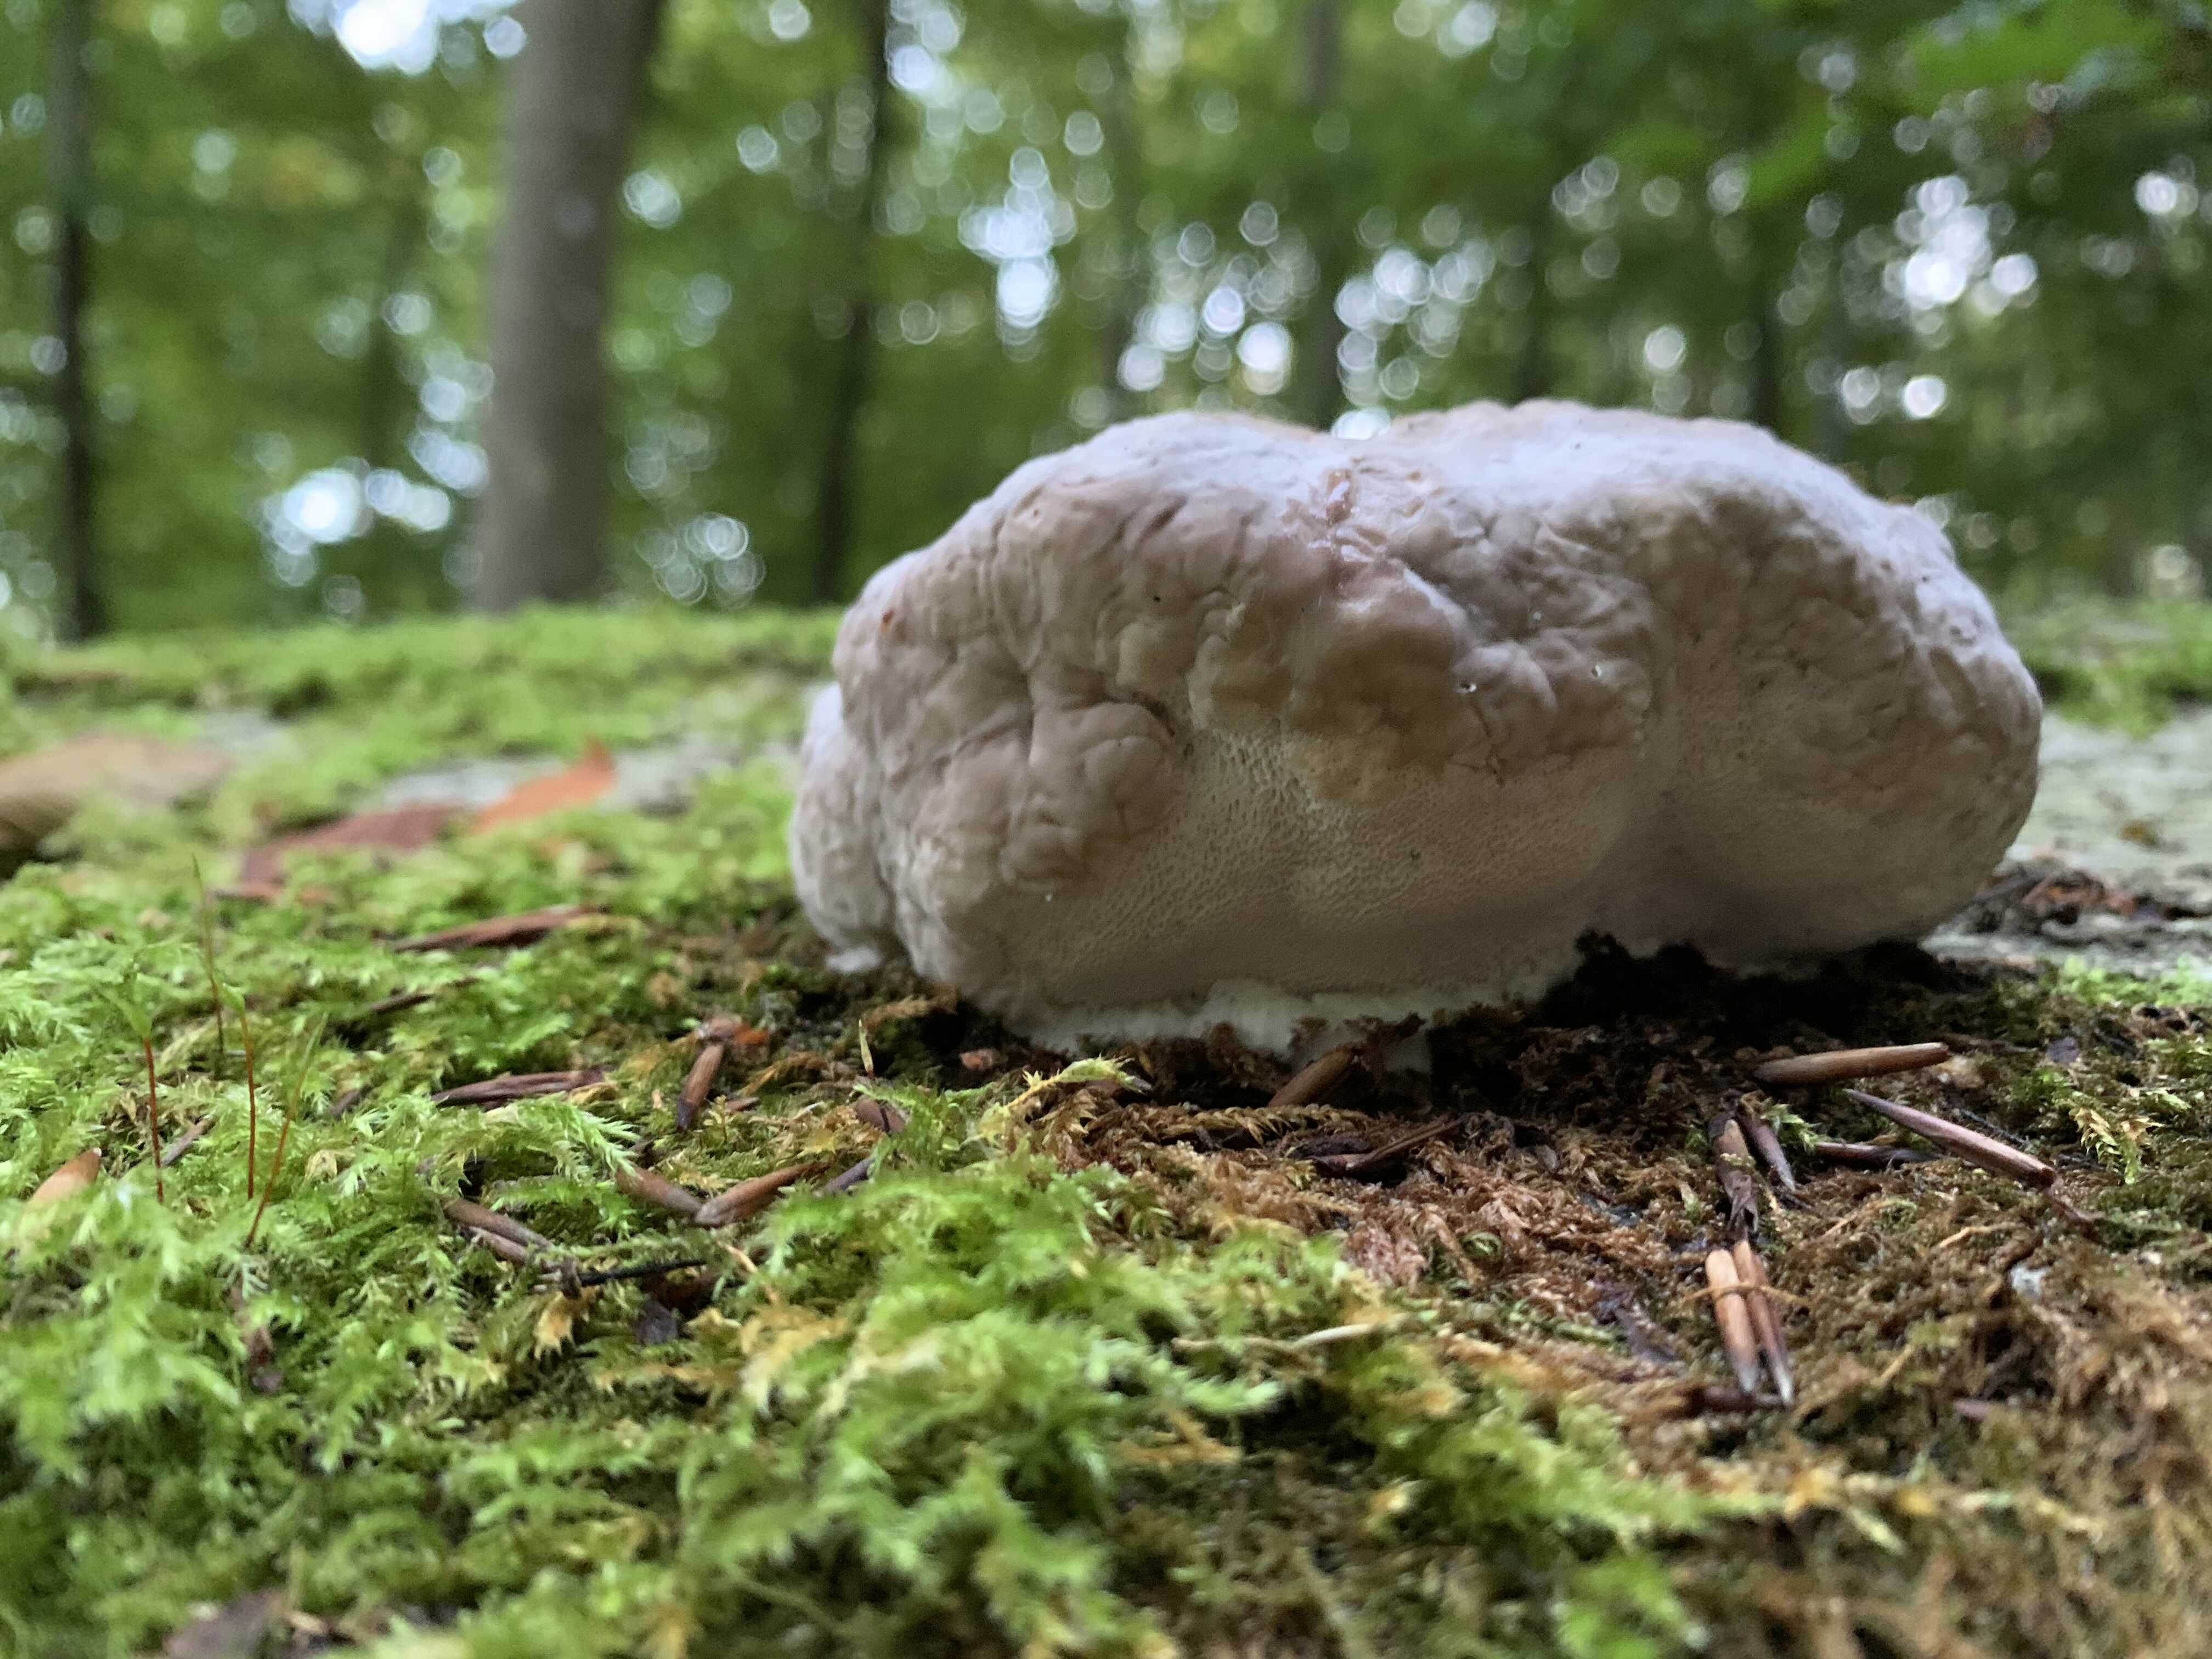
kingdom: Fungi
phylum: Basidiomycota
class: Agaricomycetes
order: Polyporales
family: Fomitopsidaceae
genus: Fomitopsis
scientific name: Fomitopsis pinicola
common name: randbæltet hovporesvamp
